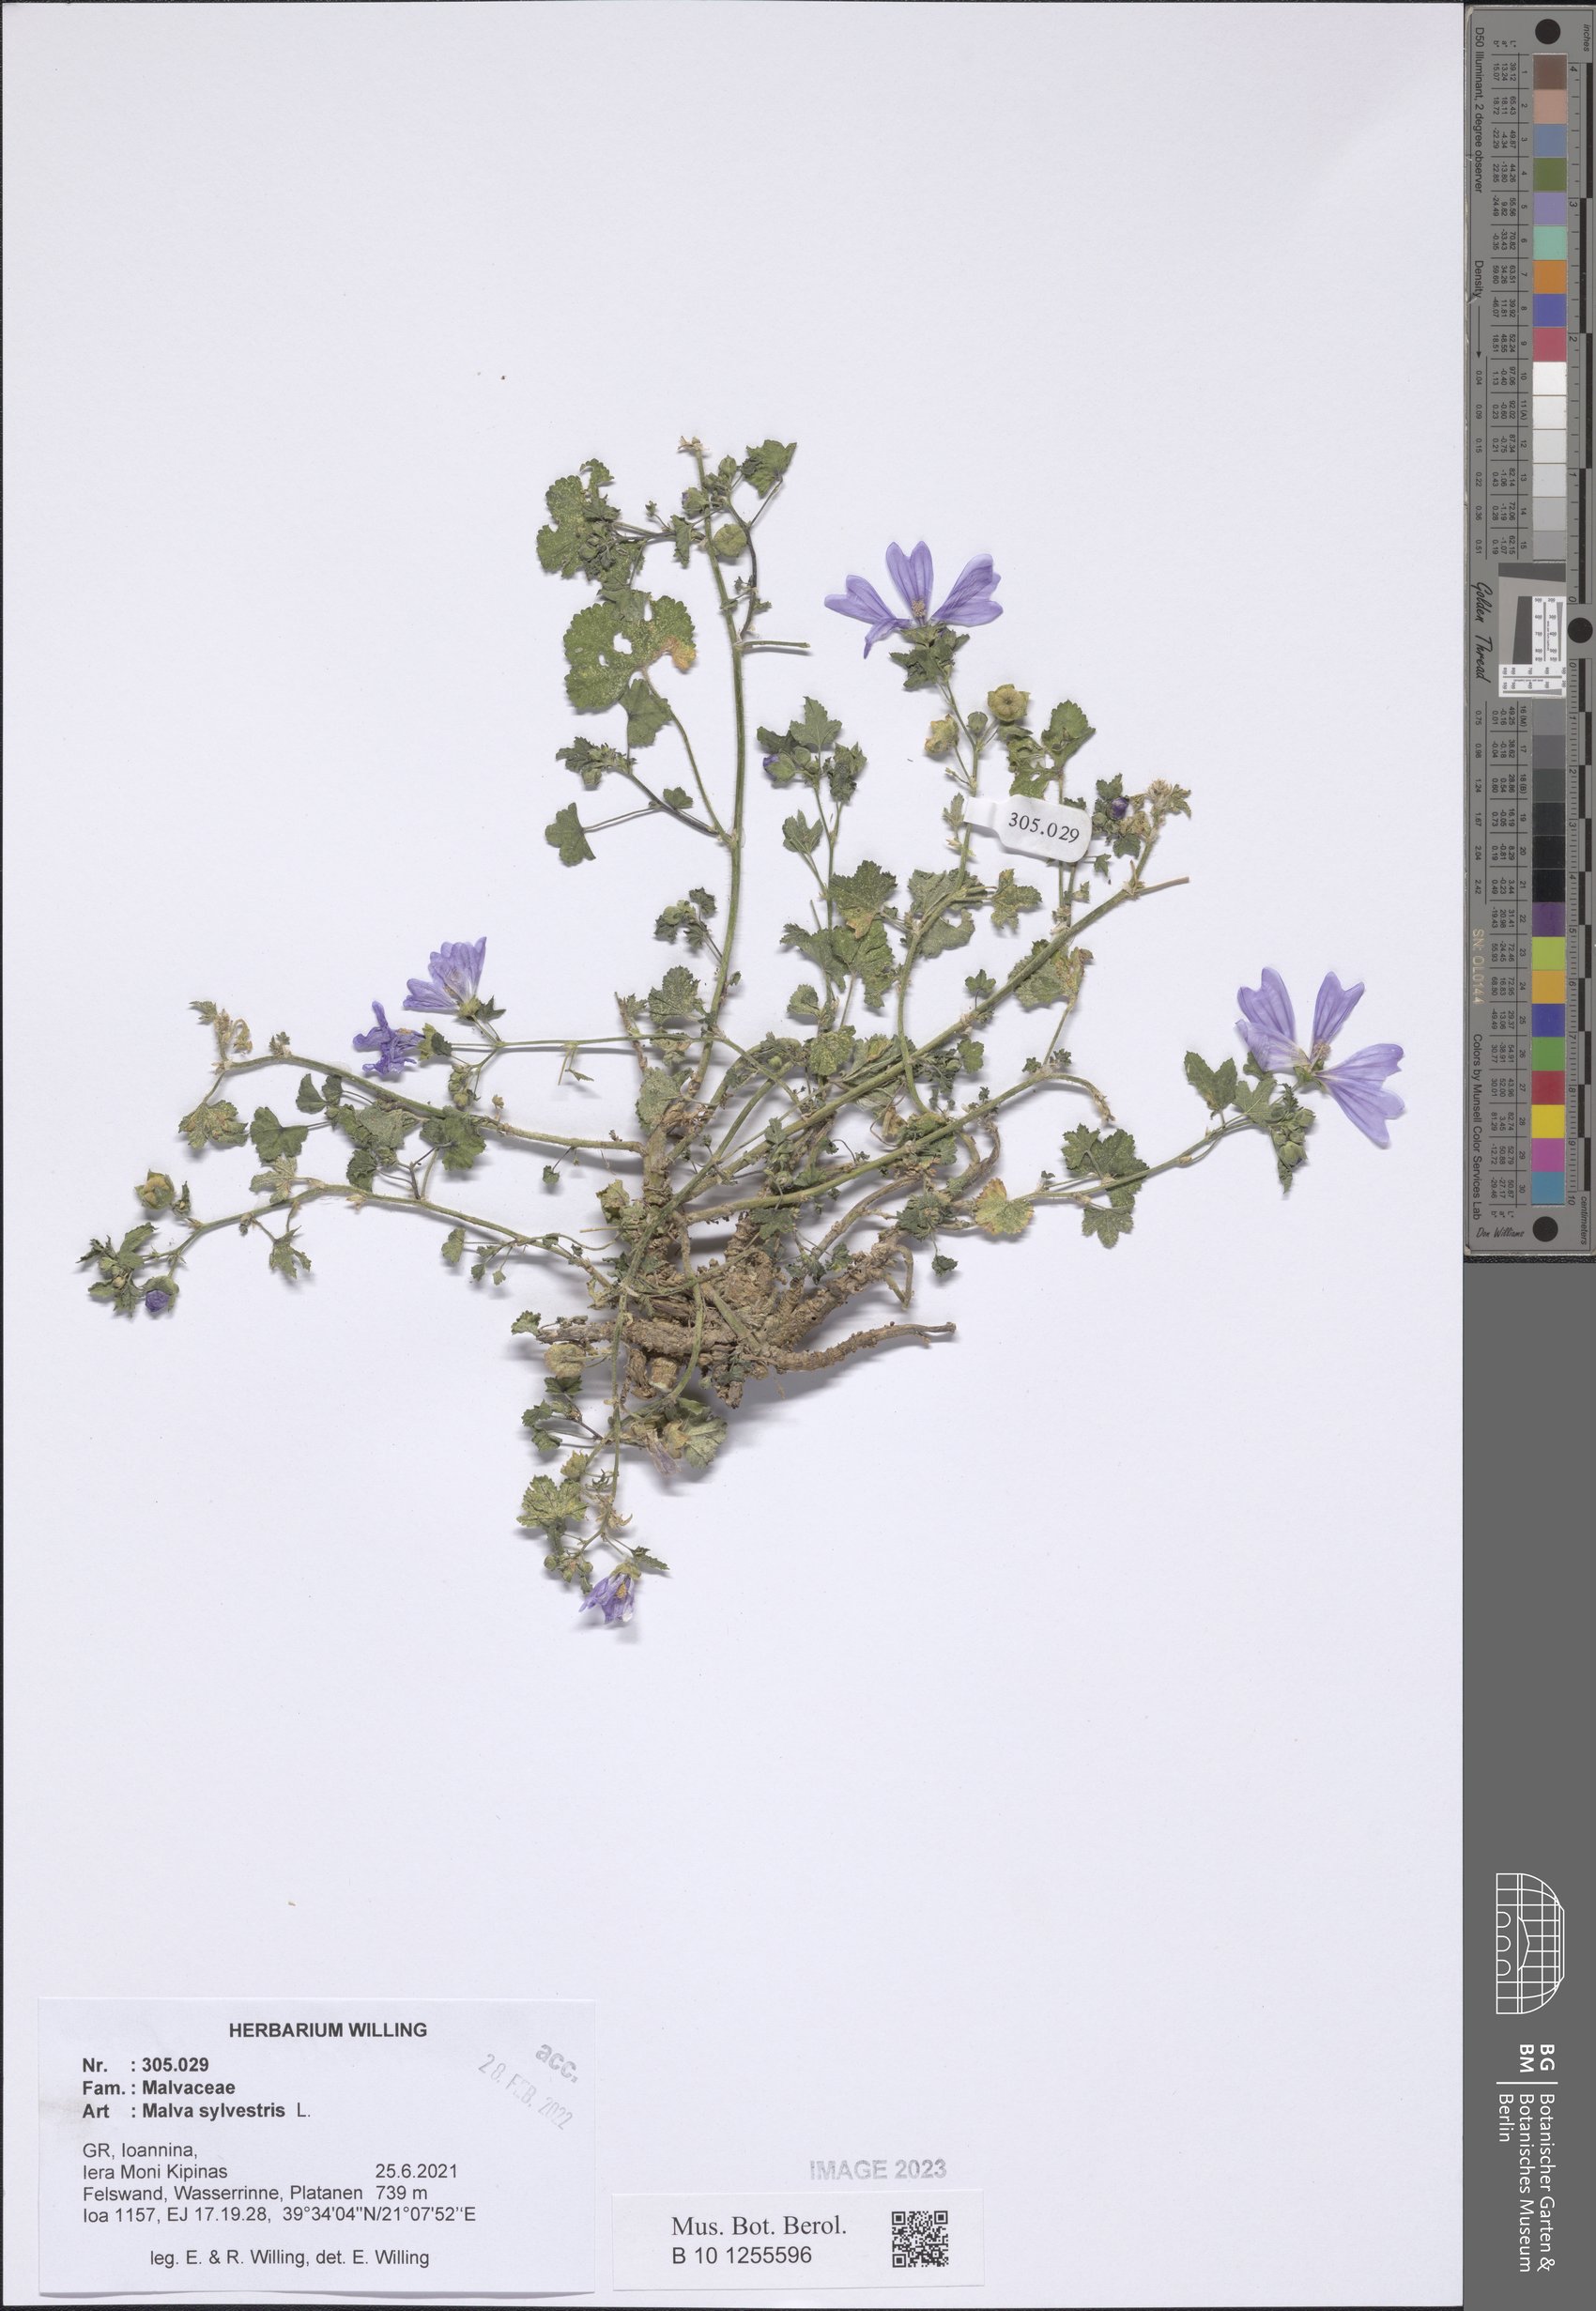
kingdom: Plantae
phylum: Tracheophyta
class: Magnoliopsida
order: Malvales
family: Malvaceae
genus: Malva
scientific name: Malva sylvestris
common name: Common mallow
